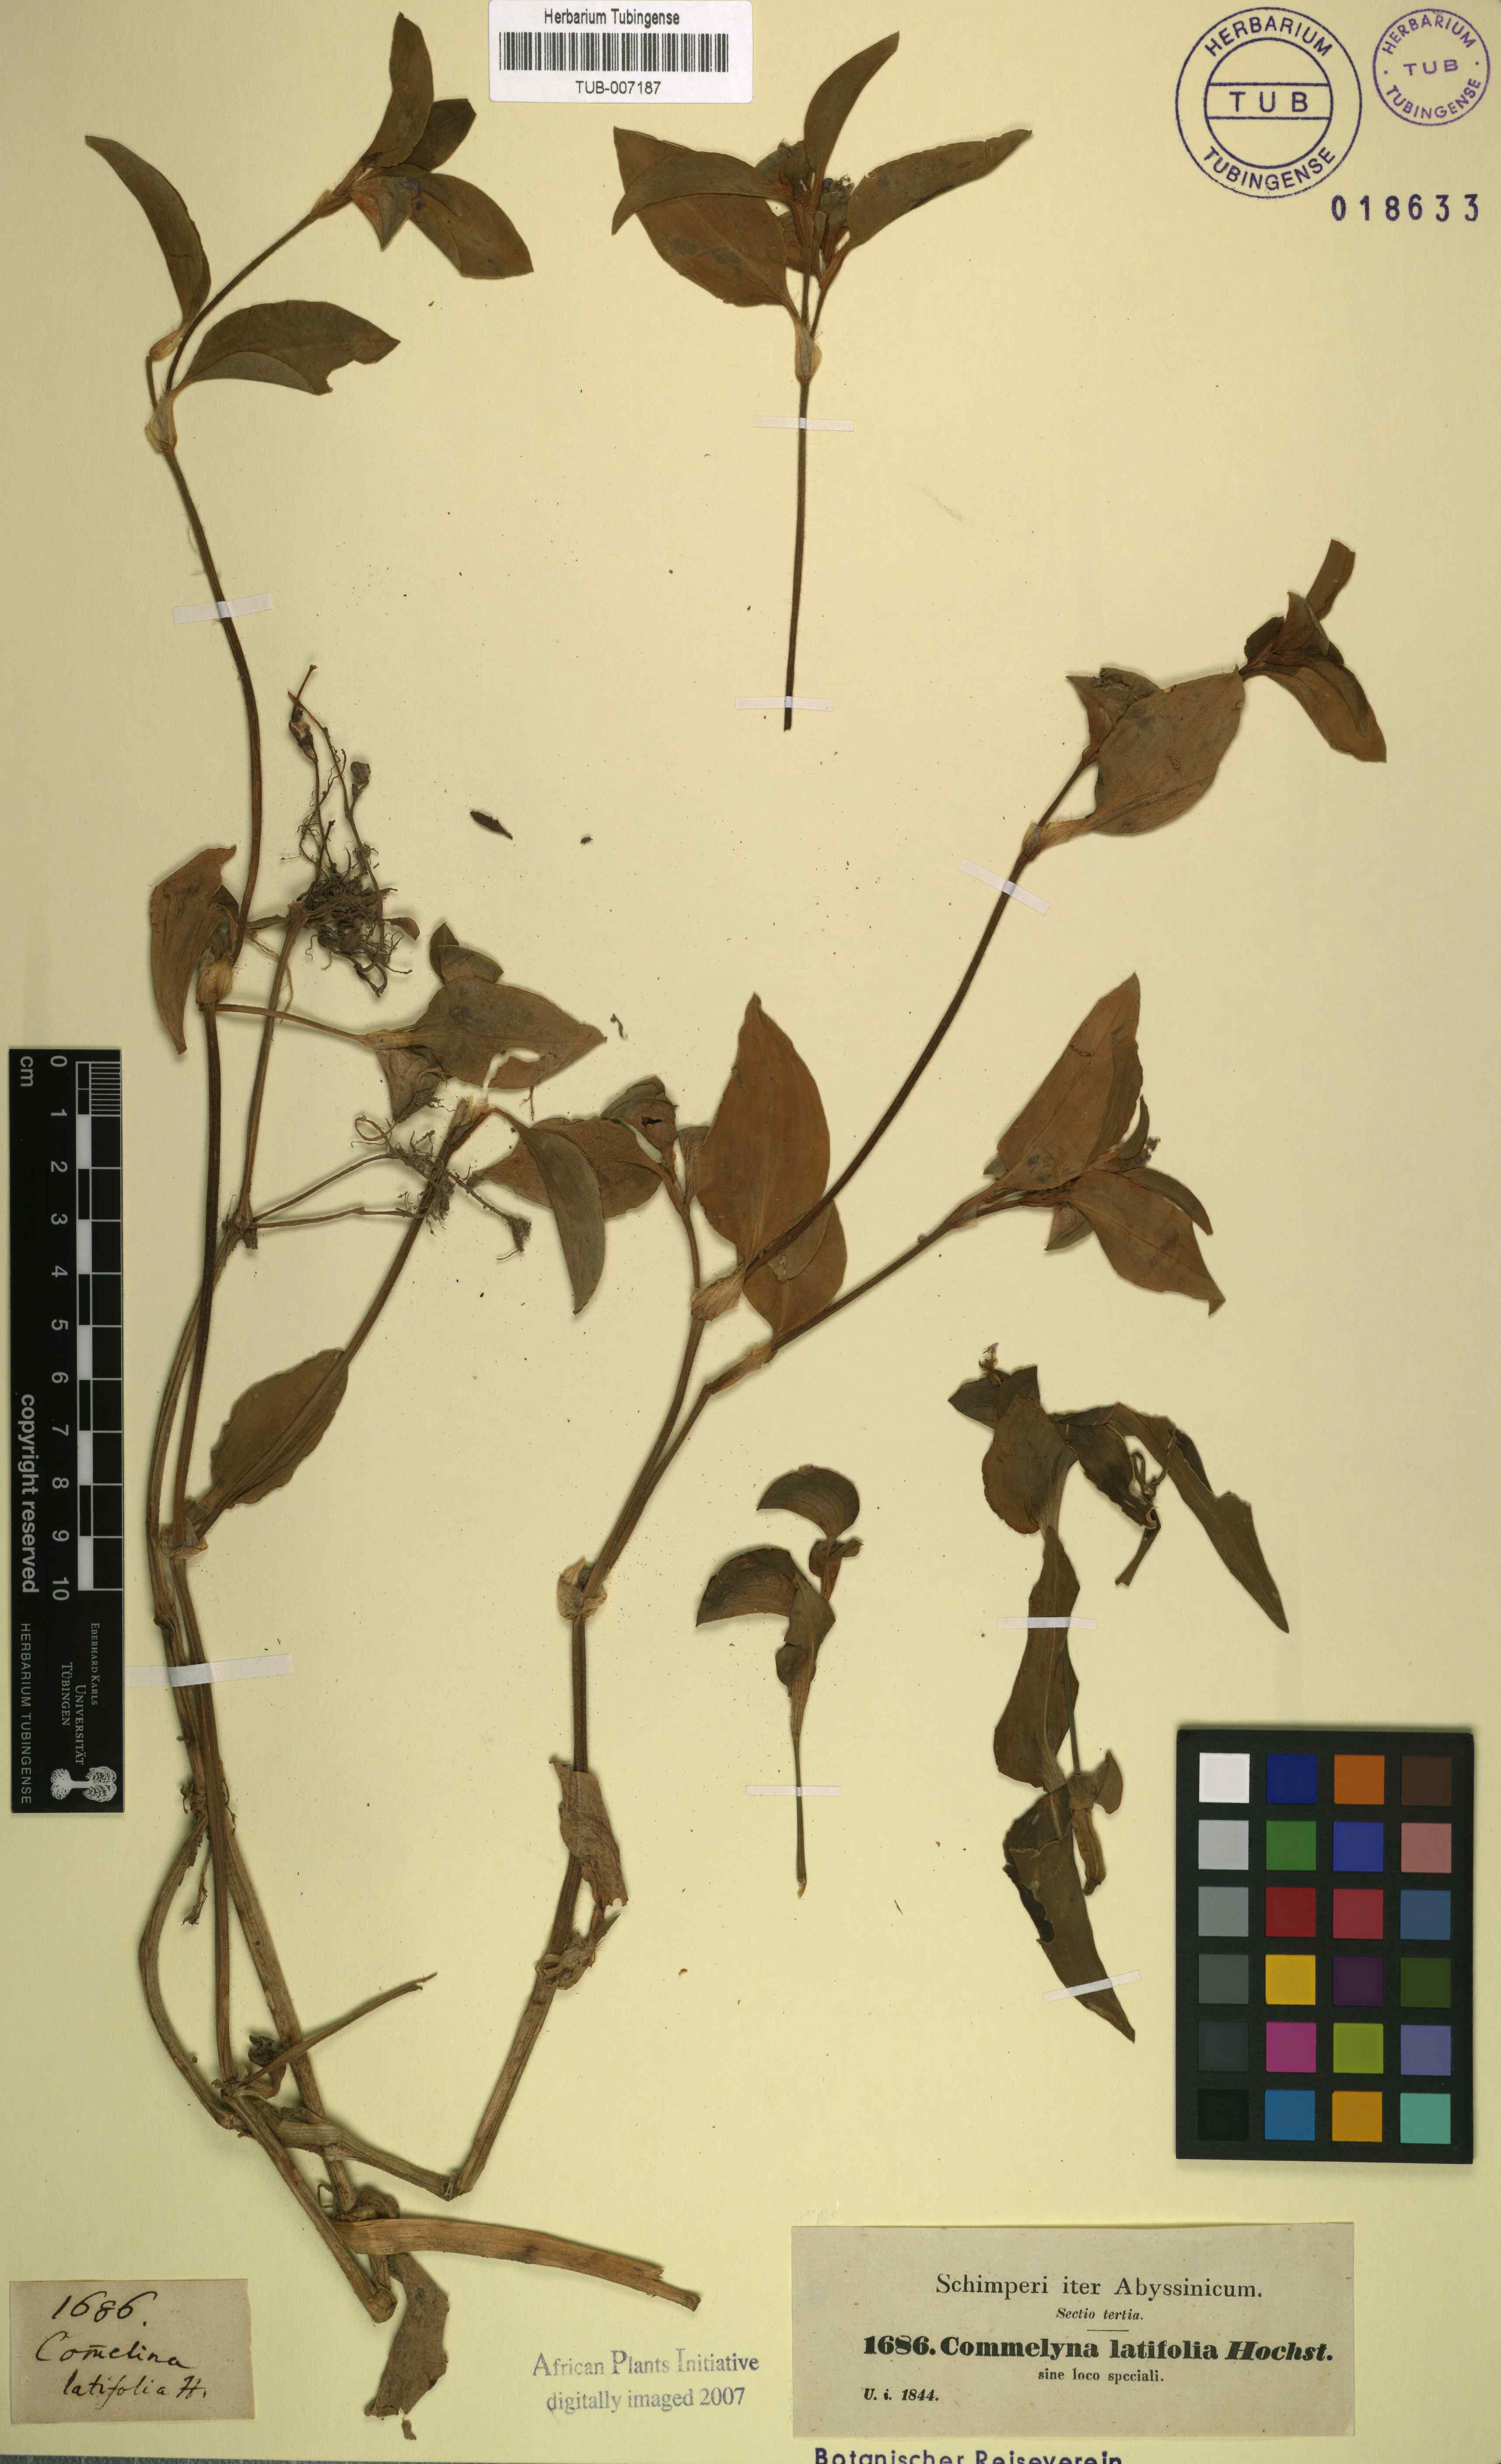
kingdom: Plantae
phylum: Tracheophyta
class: Liliopsida
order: Commelinales
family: Commelinaceae
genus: Commelina
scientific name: Commelina latifolia
